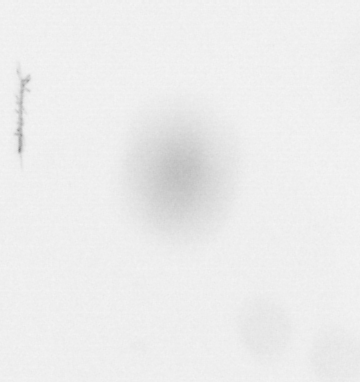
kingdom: Chromista
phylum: Ochrophyta
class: Bacillariophyceae
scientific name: Bacillariophyceae
